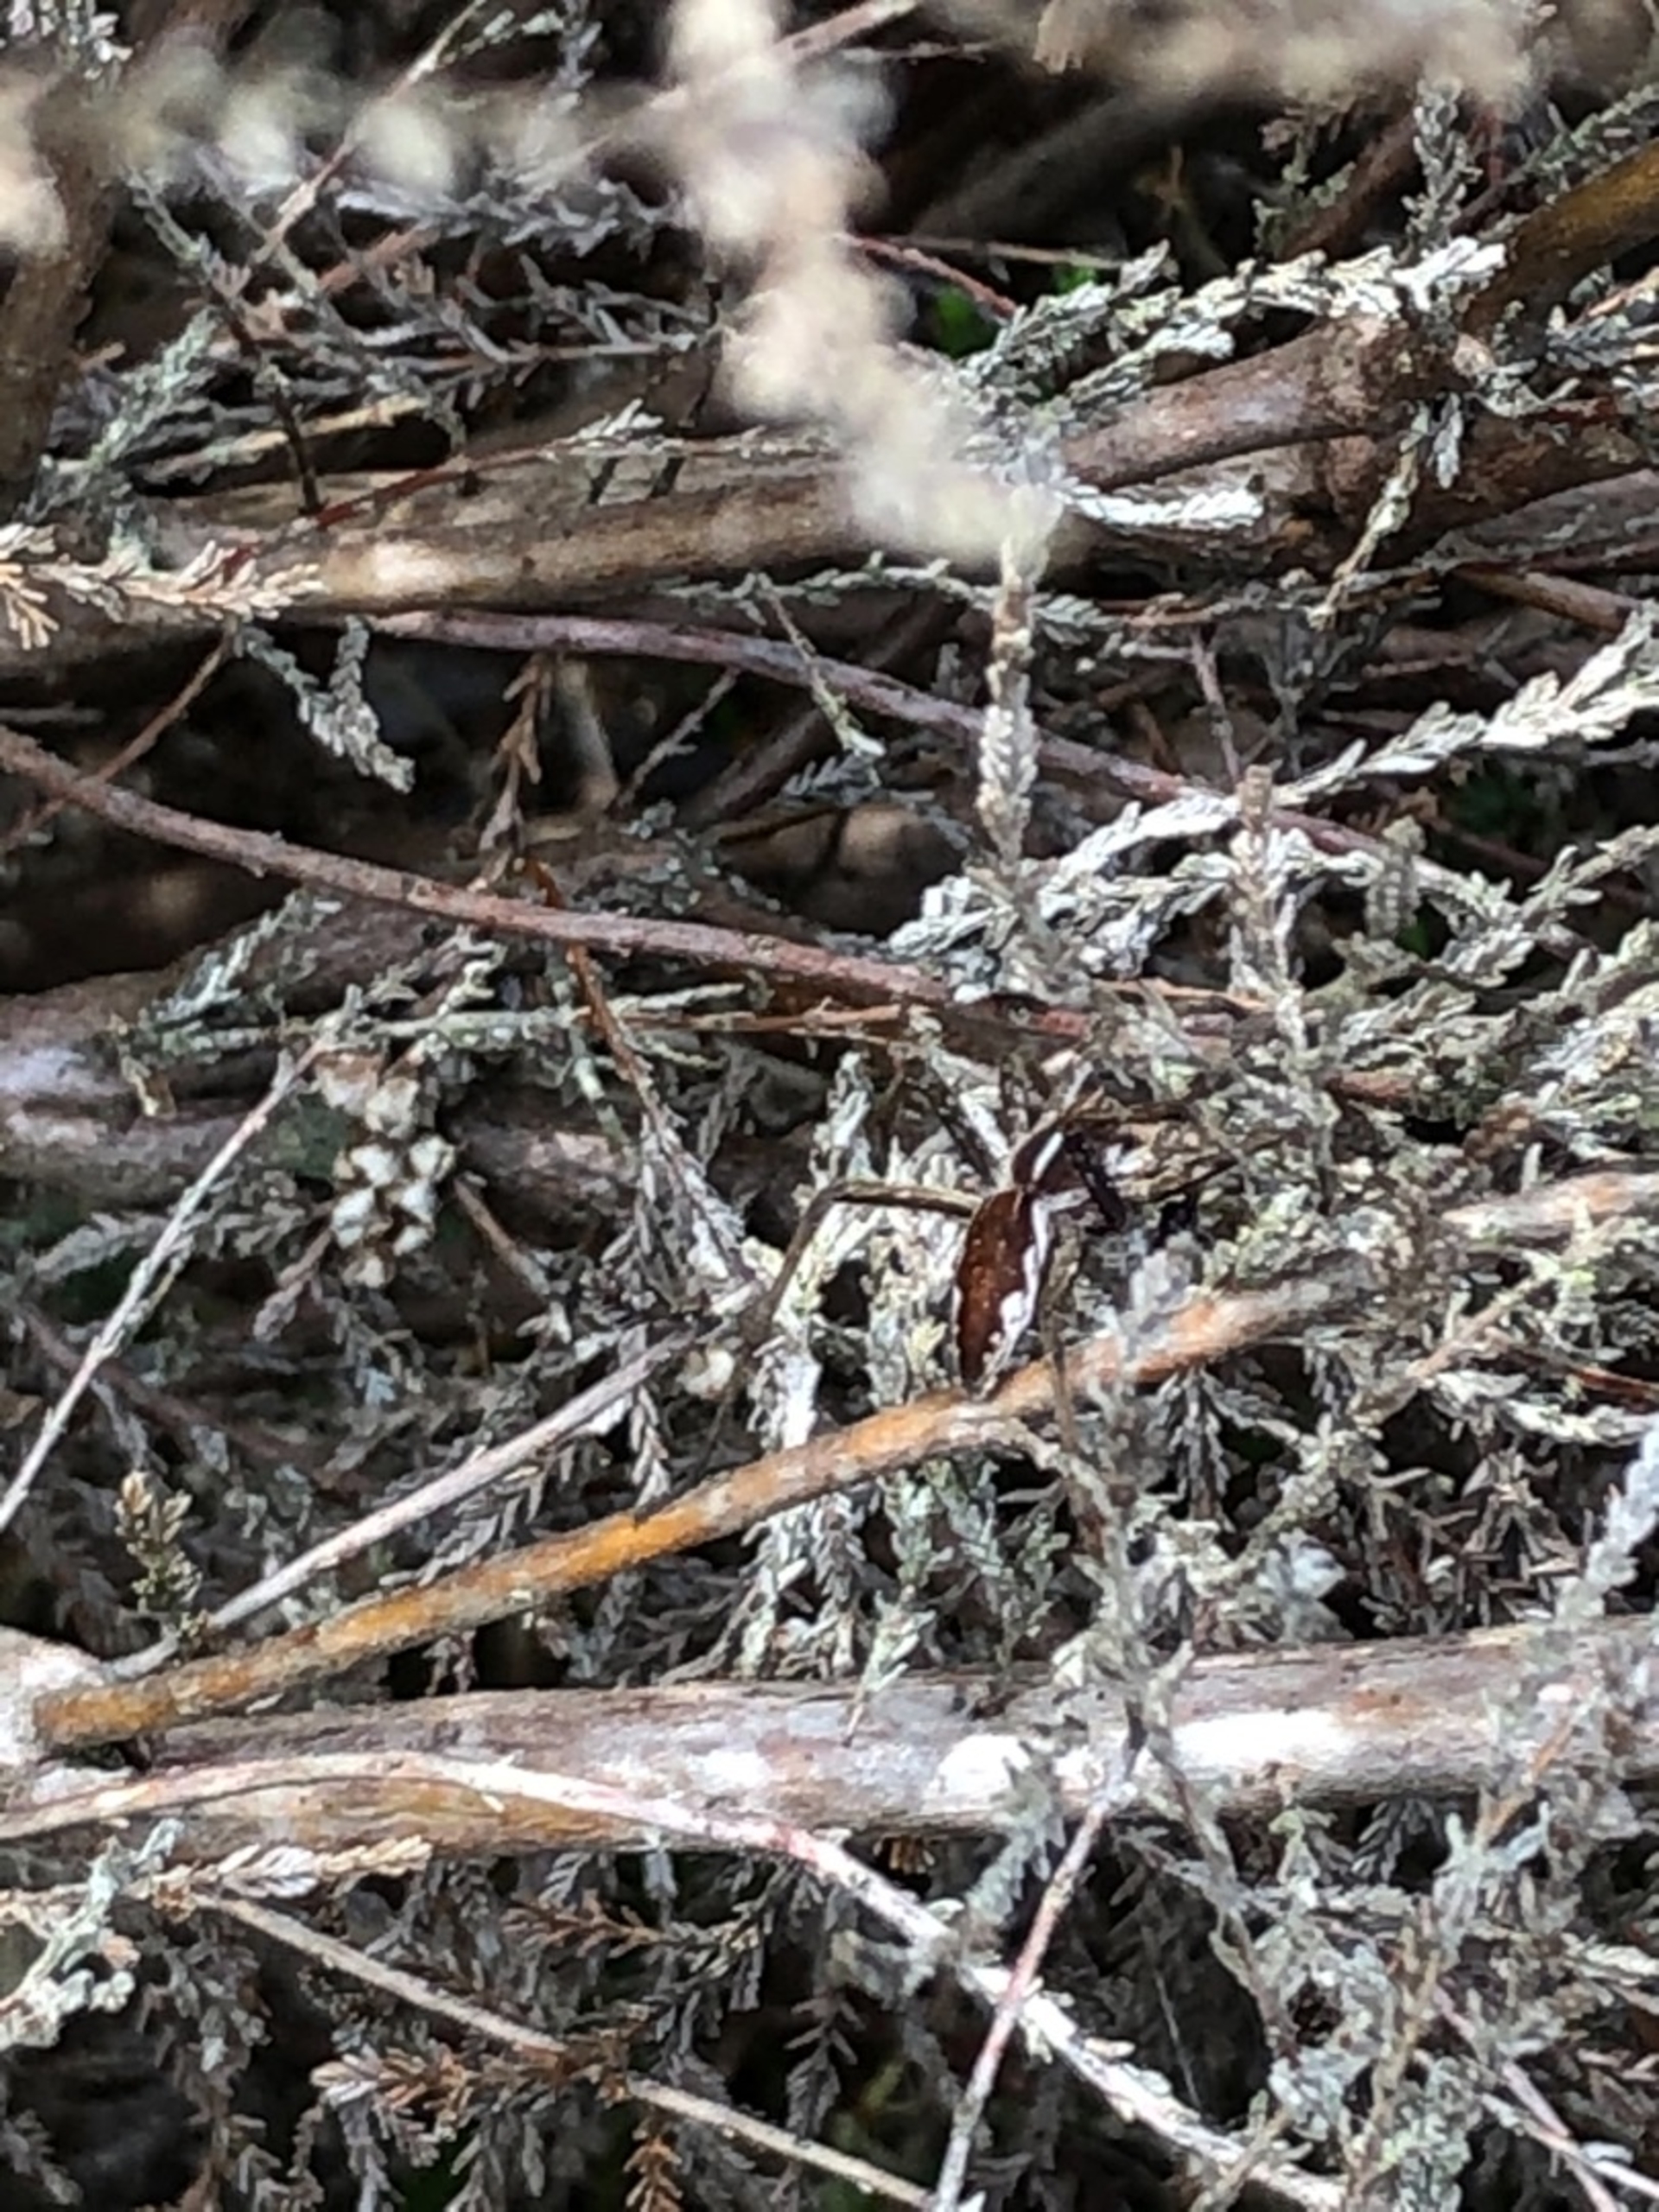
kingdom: Animalia
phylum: Arthropoda
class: Arachnida
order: Araneae
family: Pisauridae
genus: Pisaura
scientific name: Pisaura mirabilis
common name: Almindelig rovedderkop
